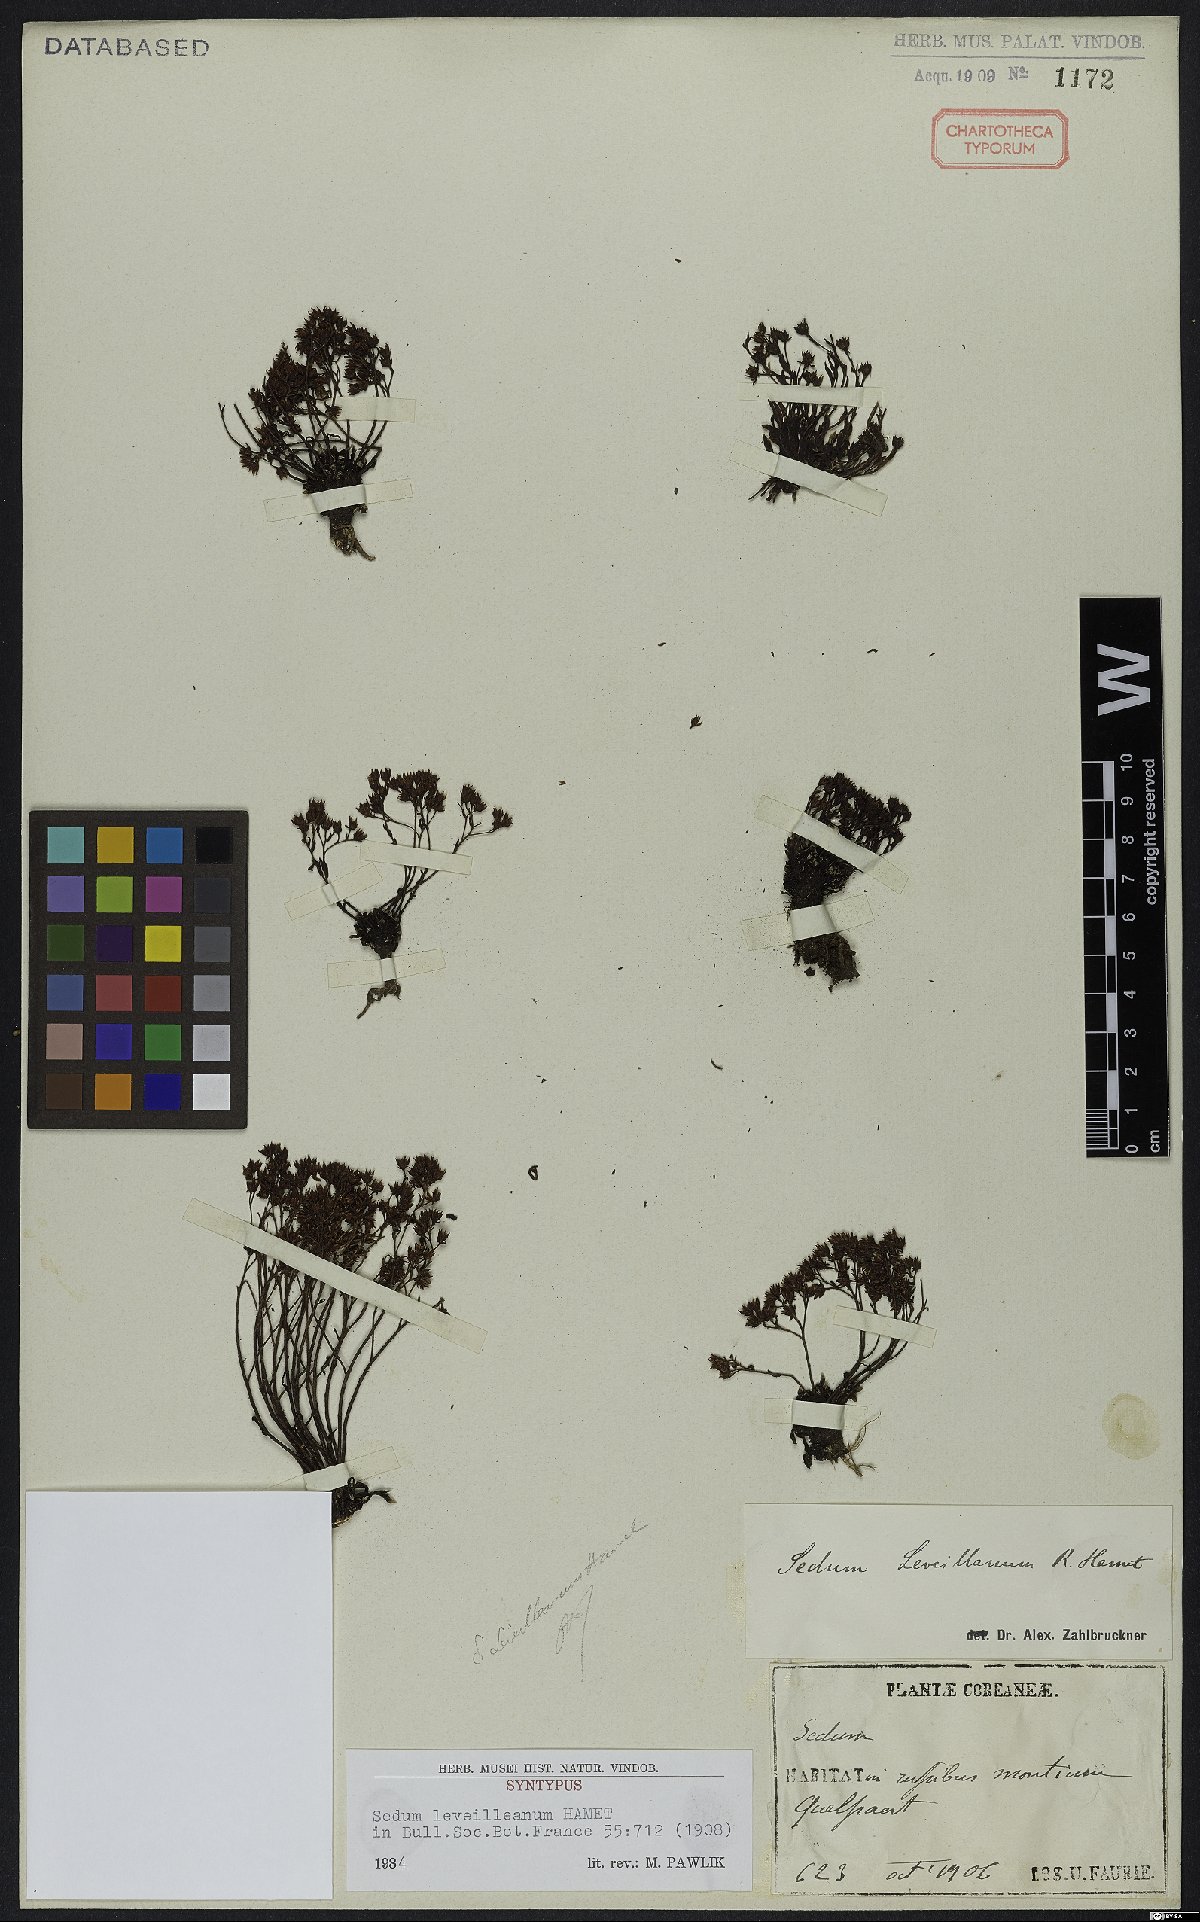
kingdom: Plantae
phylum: Tracheophyta
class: Magnoliopsida
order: Saxifragales
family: Crassulaceae
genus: Meterostachys
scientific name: Meterostachys sikokianus
